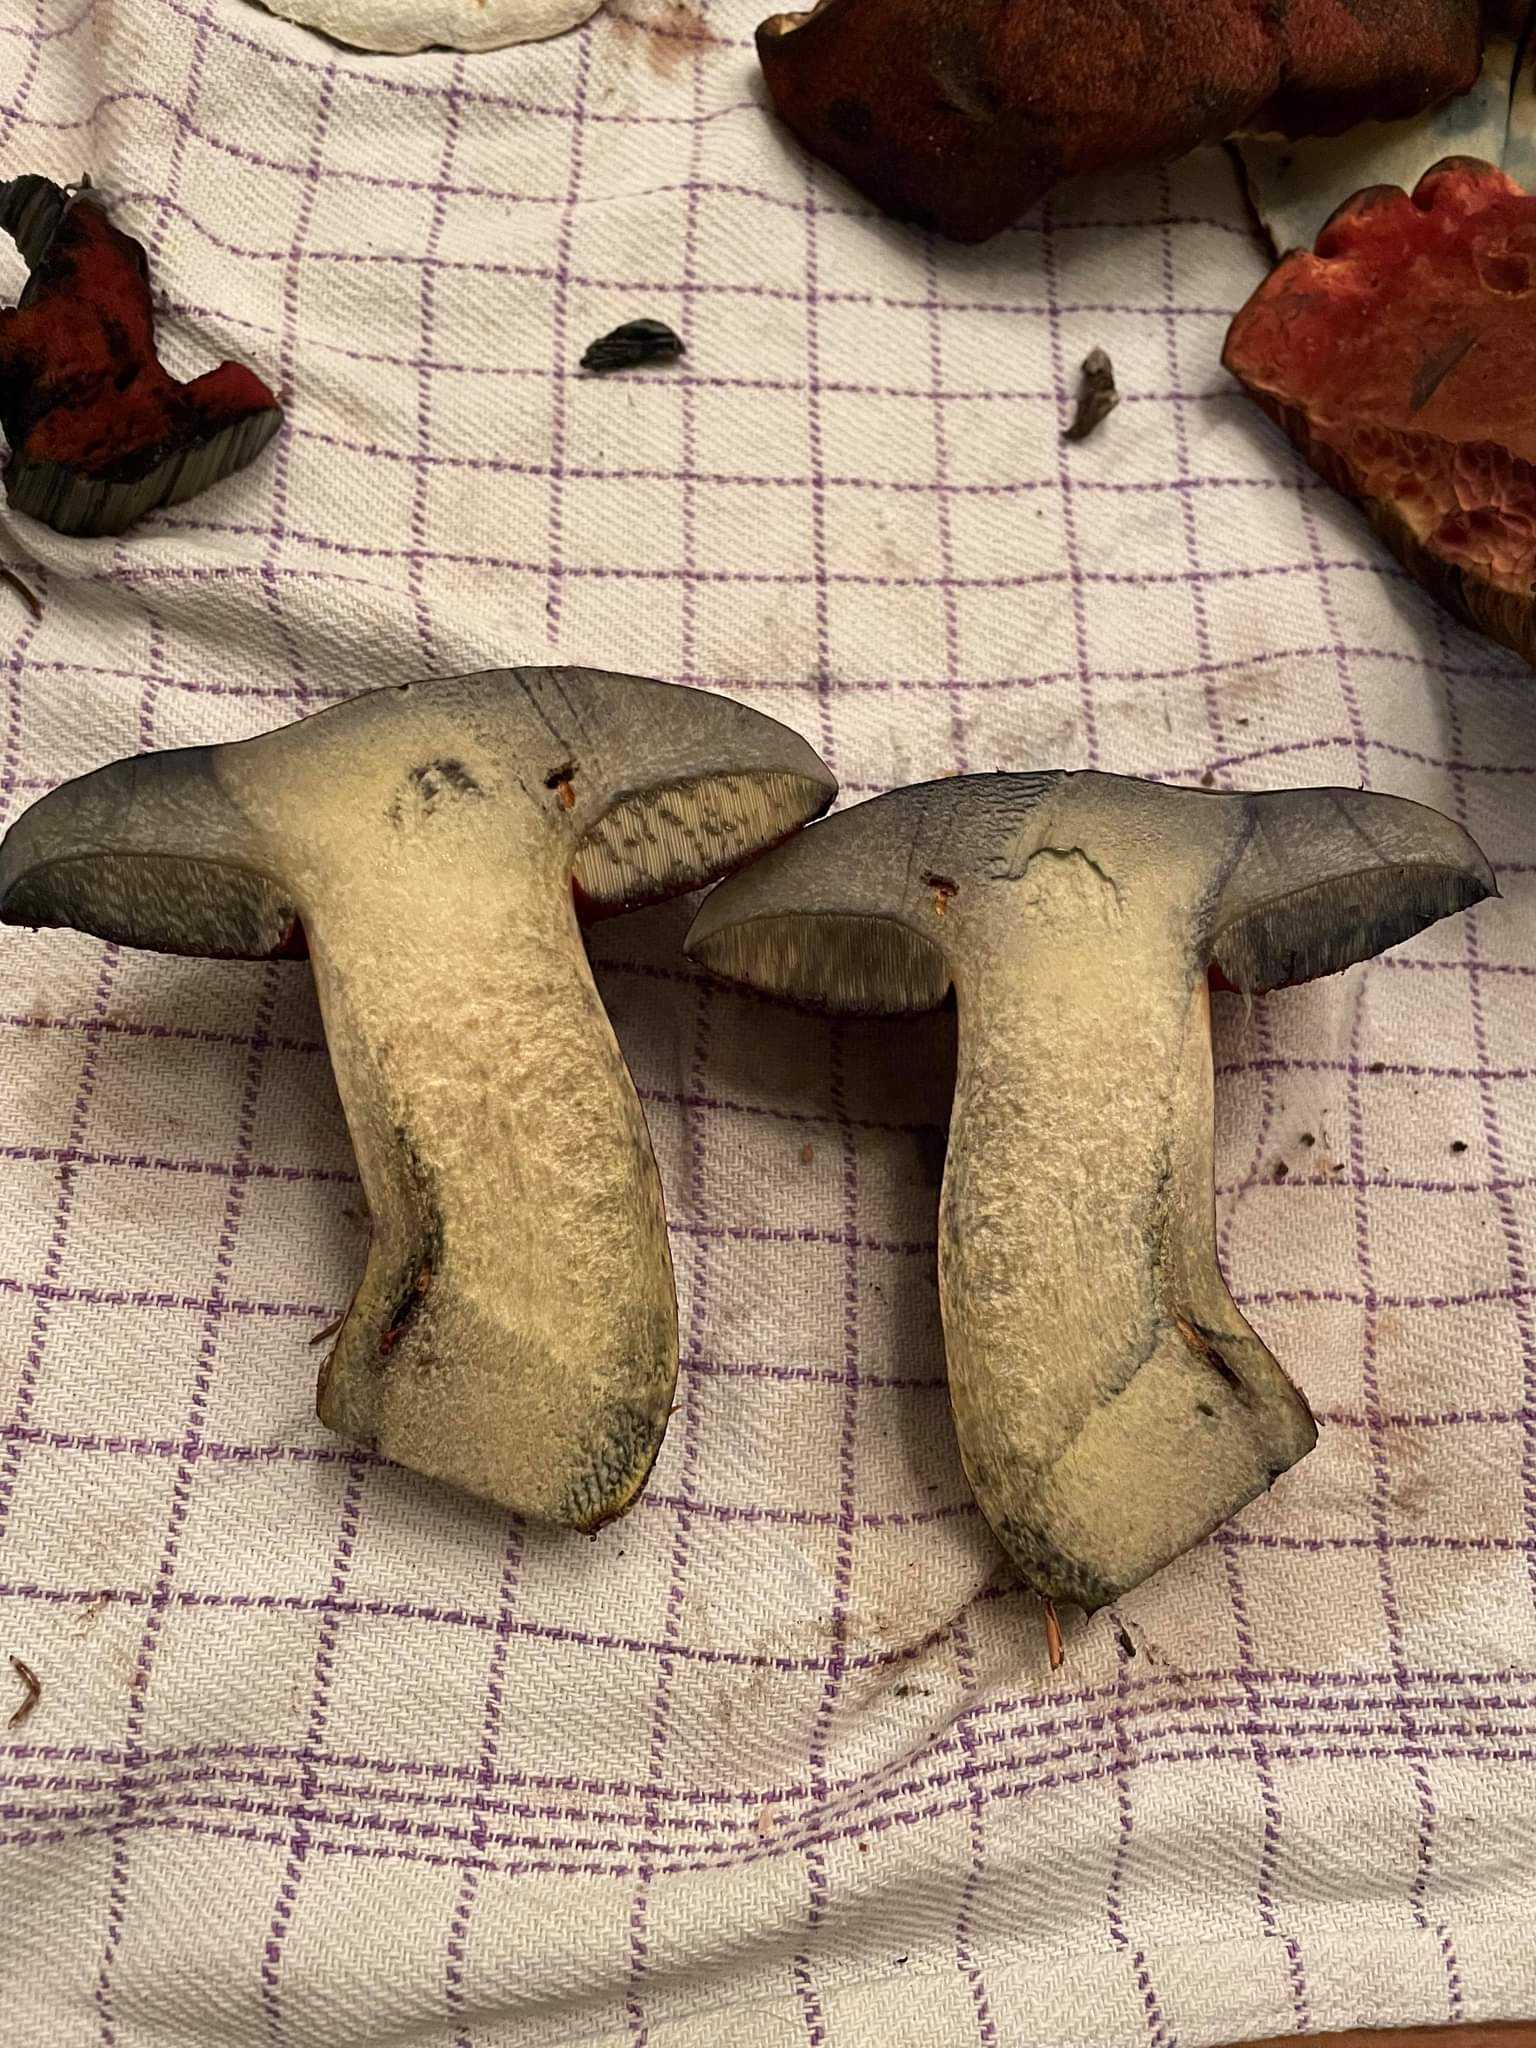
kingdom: Fungi
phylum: Basidiomycota
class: Agaricomycetes
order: Boletales
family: Boletaceae
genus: Neoboletus
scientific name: Neoboletus erythropus
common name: punktstokket indigorørhat
